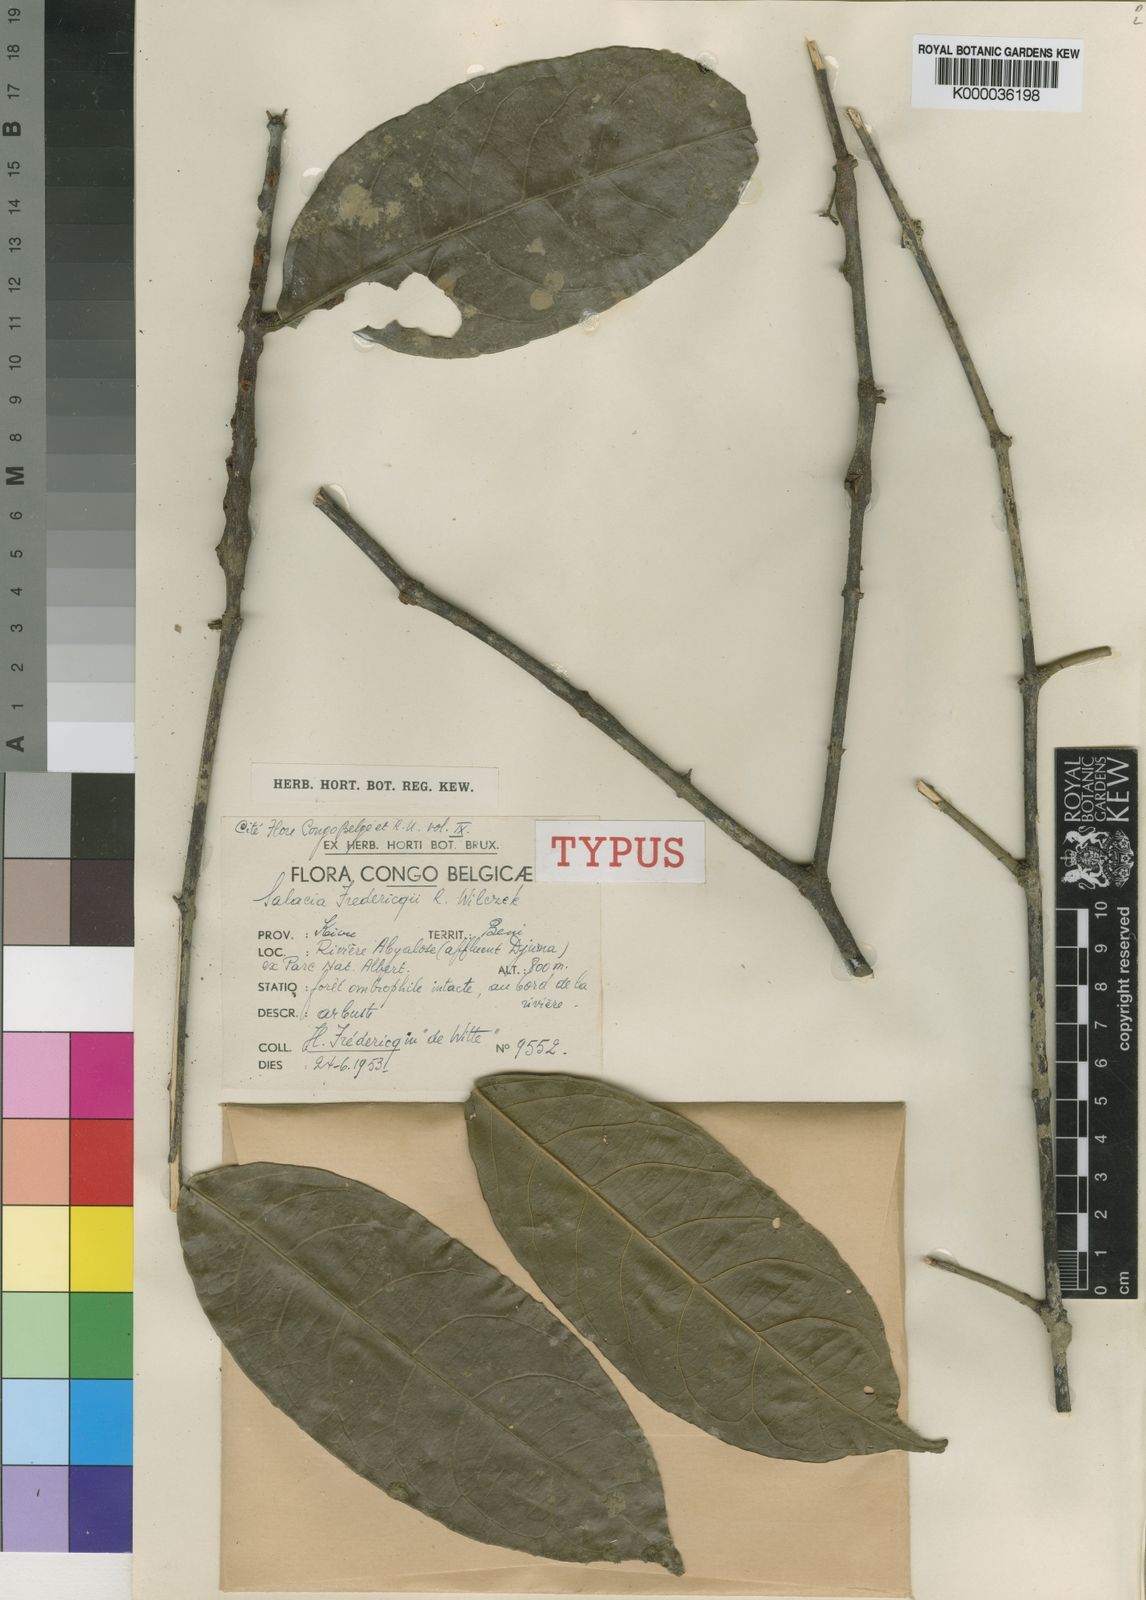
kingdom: Plantae
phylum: Tracheophyta
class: Magnoliopsida
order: Celastrales
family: Celastraceae
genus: Salacia
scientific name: Salacia longipes
